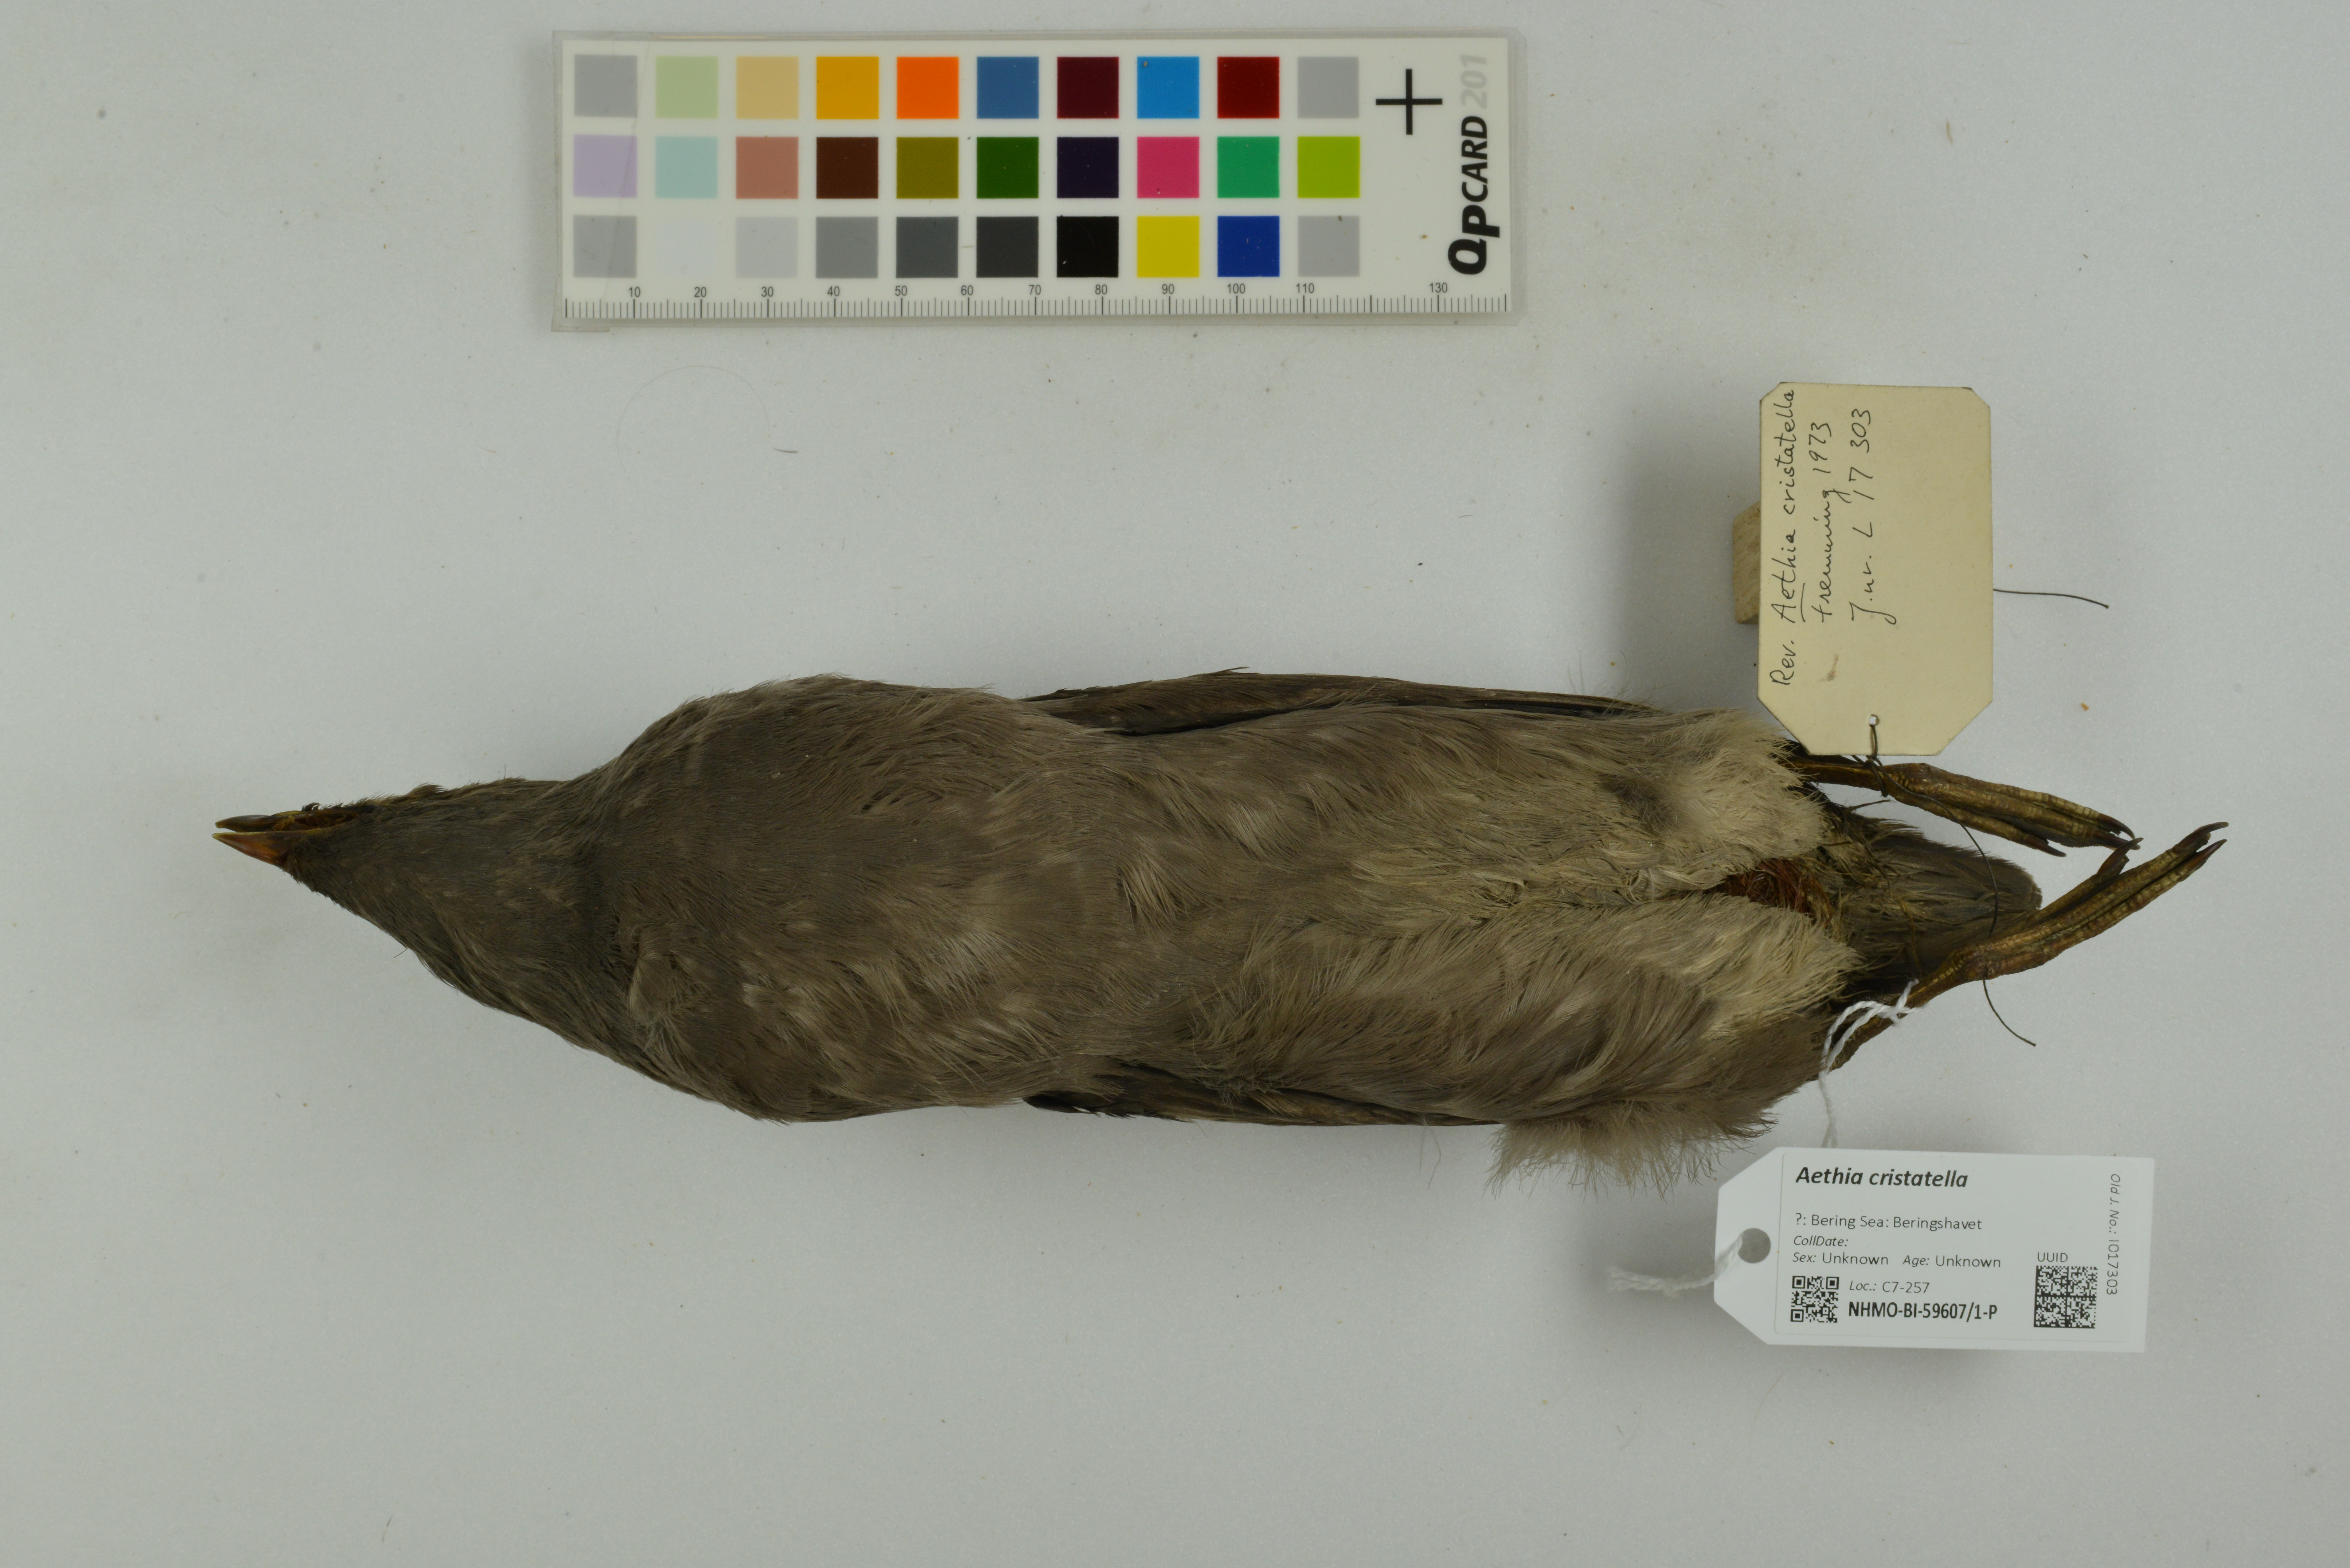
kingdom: Animalia
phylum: Chordata
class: Aves
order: Charadriiformes
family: Alcidae
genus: Aethia
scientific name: Aethia cristatella
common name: Crested auklet
